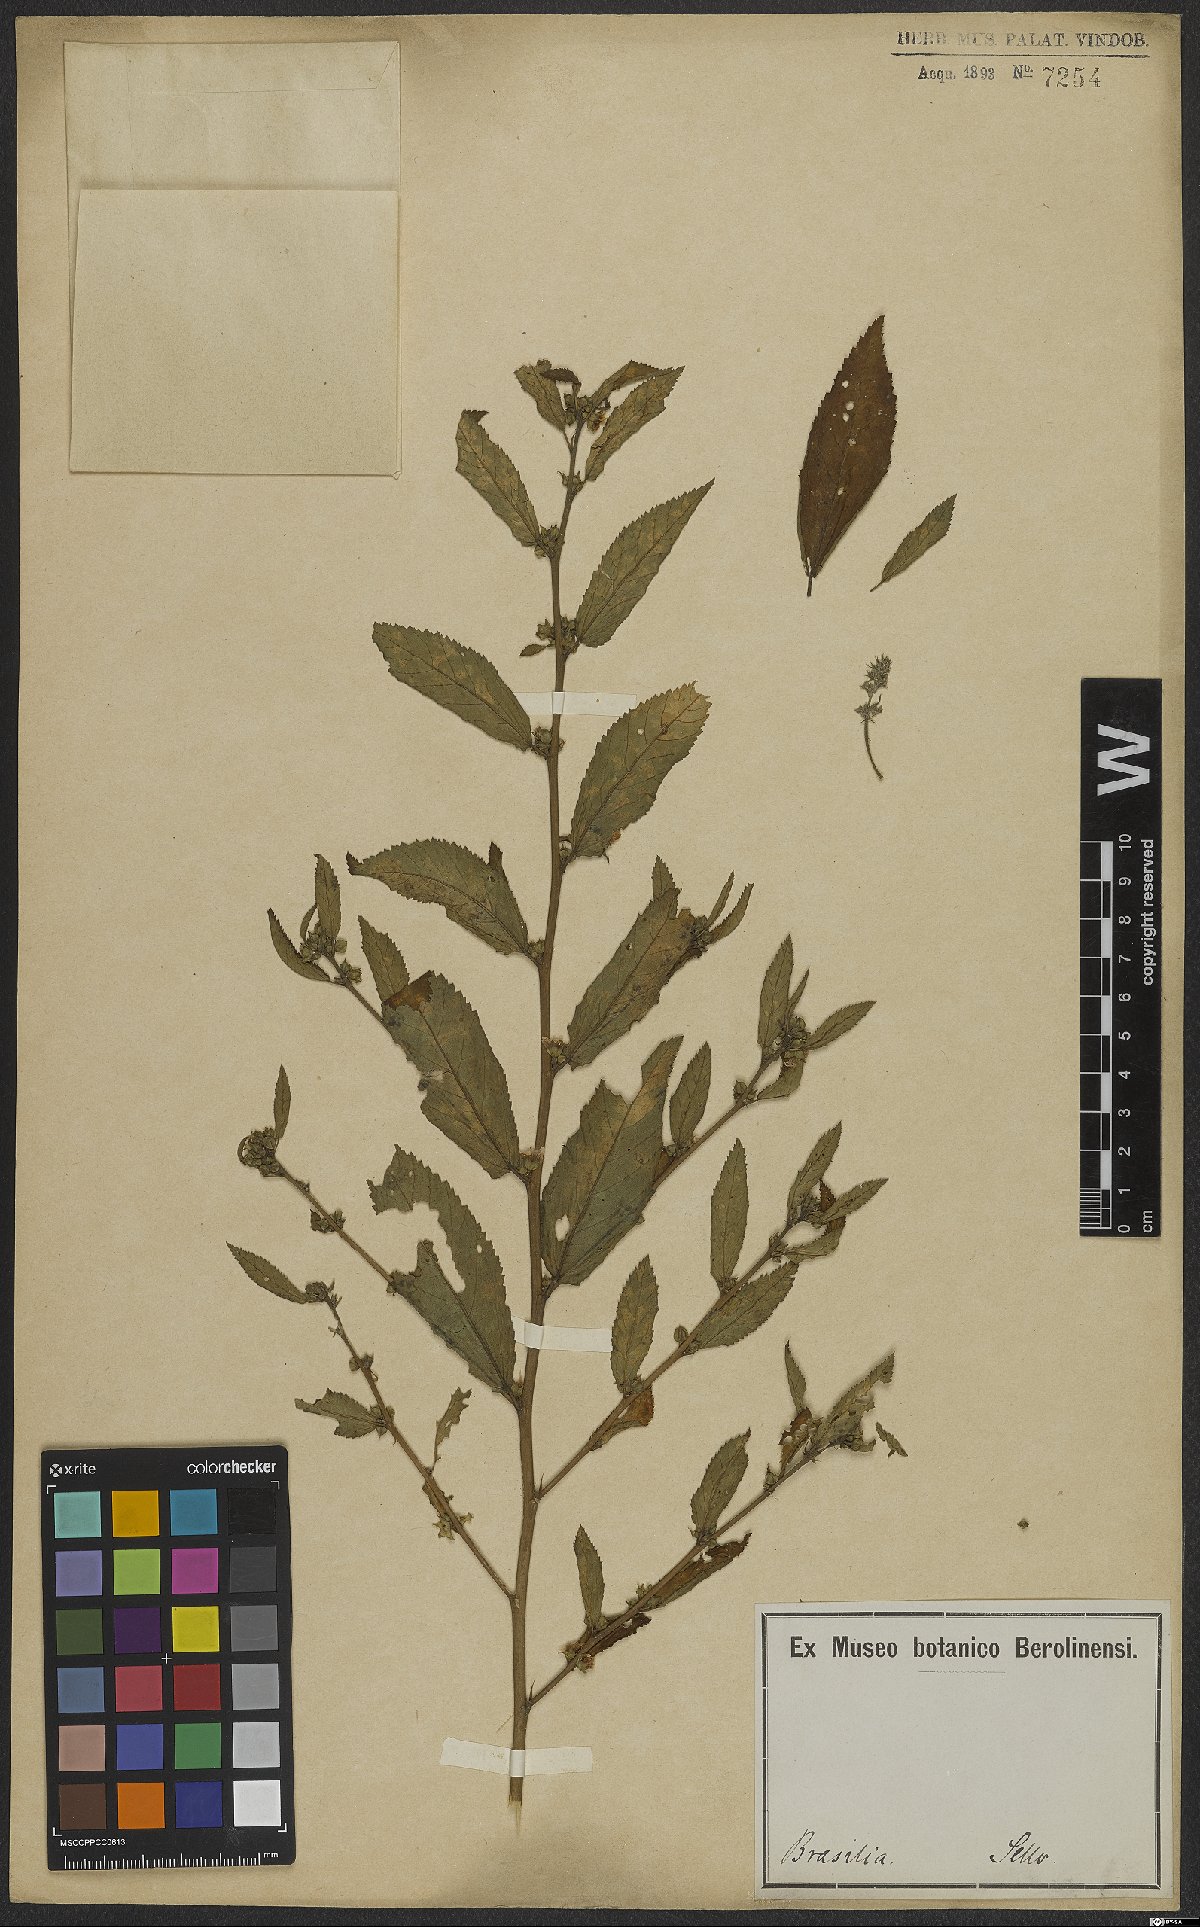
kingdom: Plantae
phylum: Tracheophyta
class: Magnoliopsida
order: Malvales
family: Malvaceae
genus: Sida
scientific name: Sida
